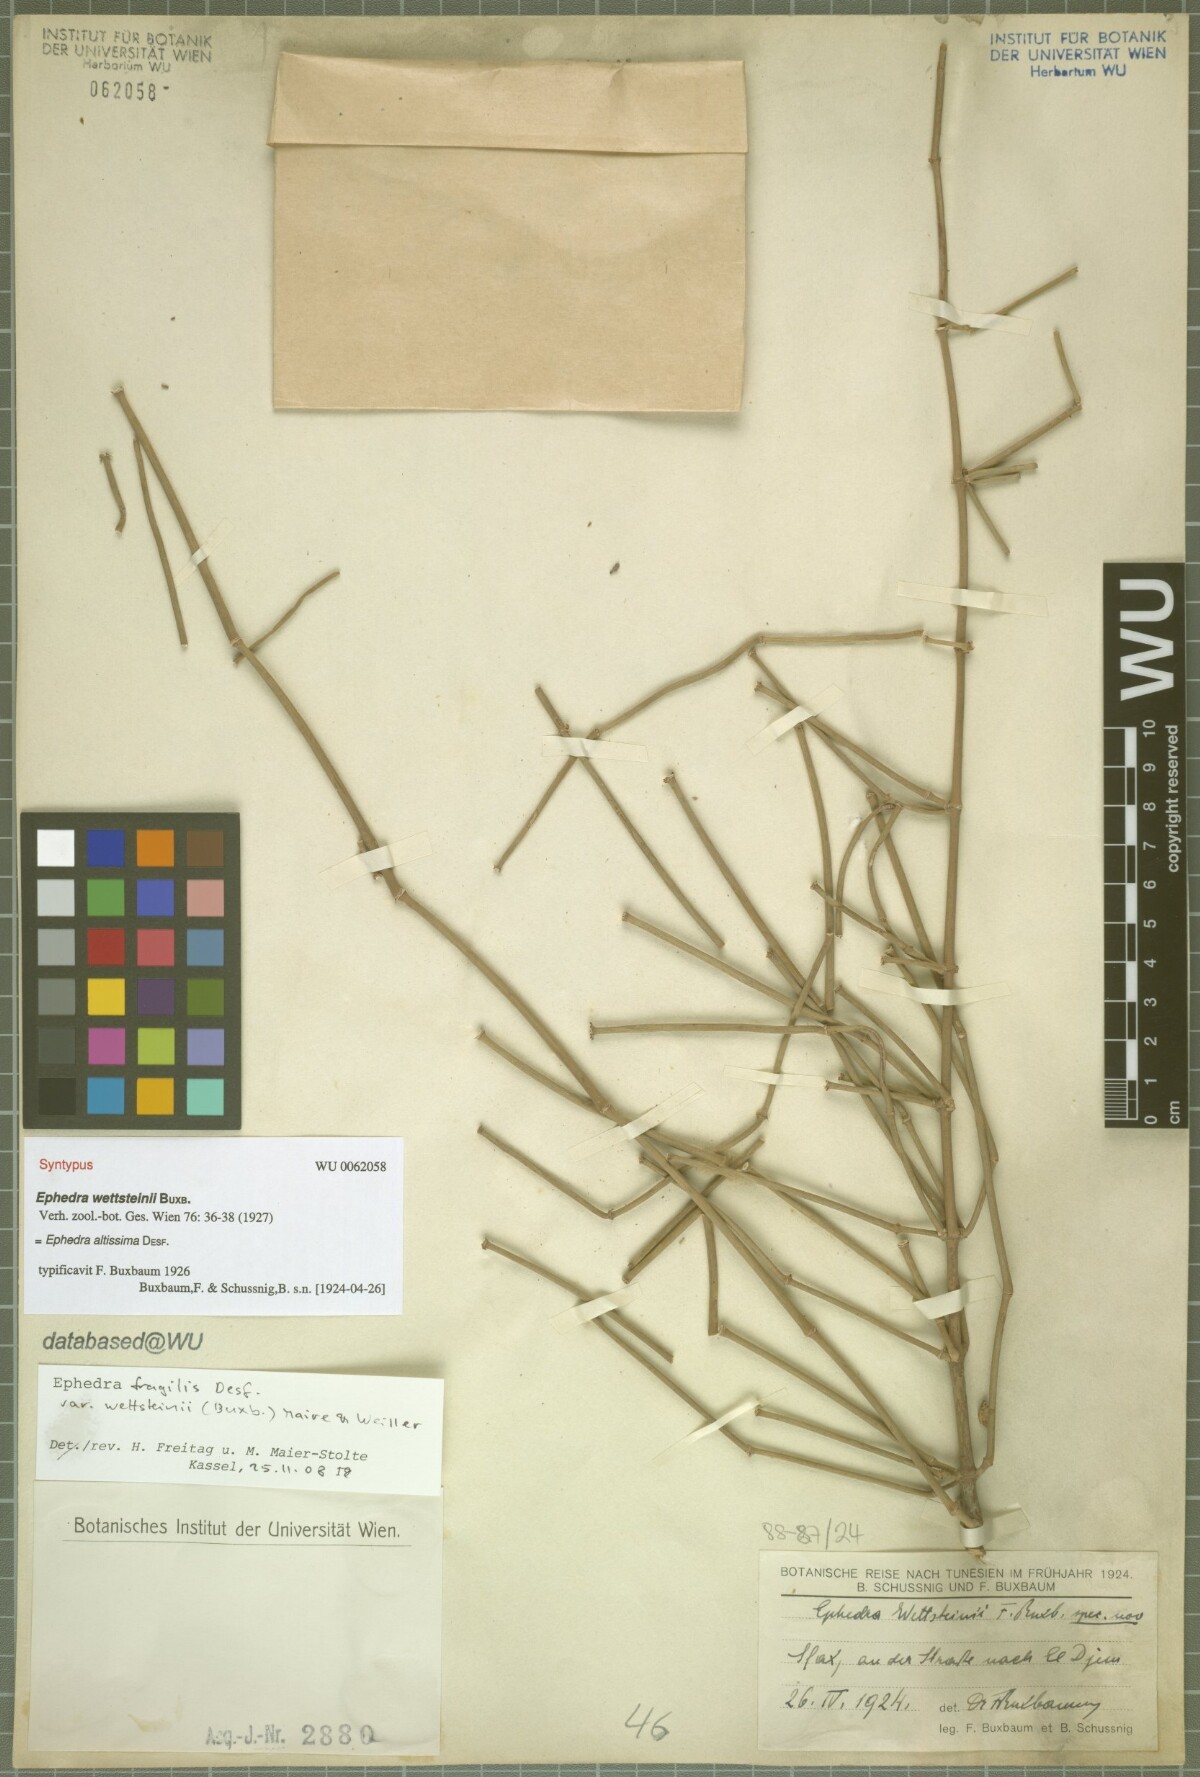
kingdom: Plantae
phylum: Tracheophyta
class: Gnetopsida
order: Ephedrales
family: Ephedraceae
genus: Ephedra
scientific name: Ephedra fragilis
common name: Joint pine
